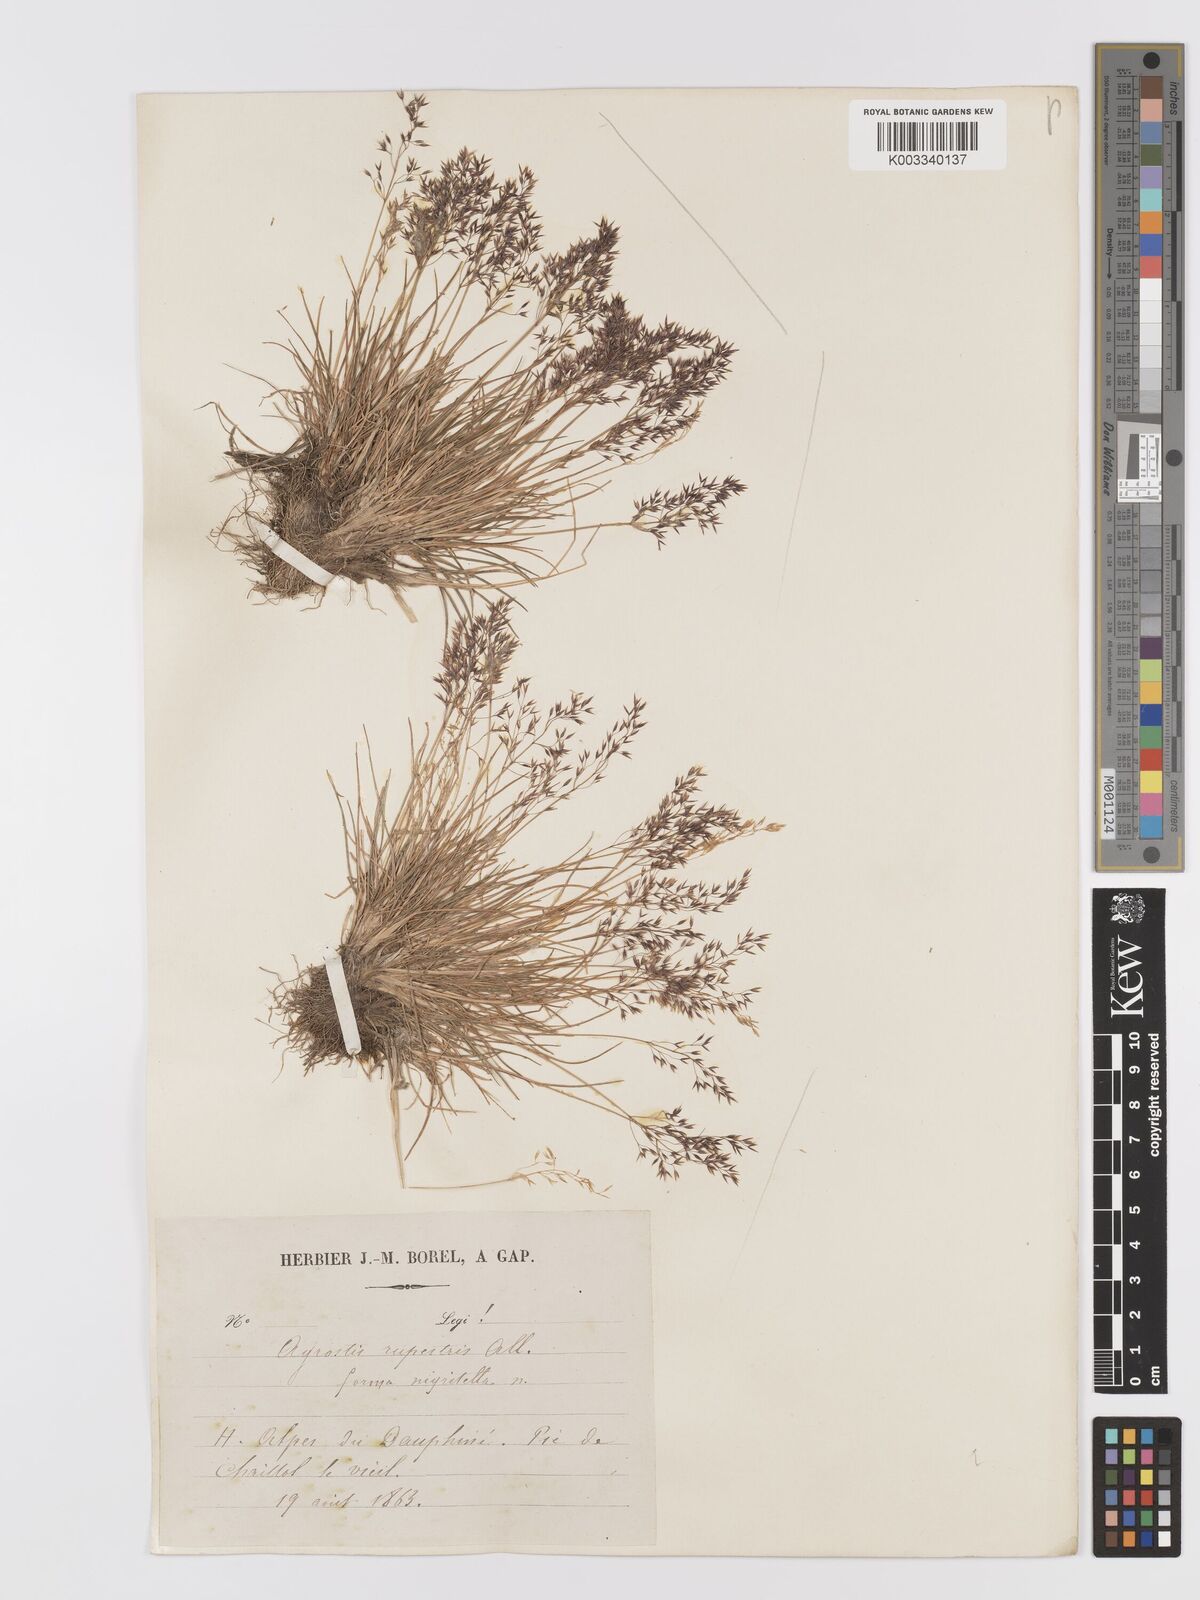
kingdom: Plantae
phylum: Tracheophyta
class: Liliopsida
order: Poales
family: Poaceae
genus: Agrostis
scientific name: Agrostis rupestris
